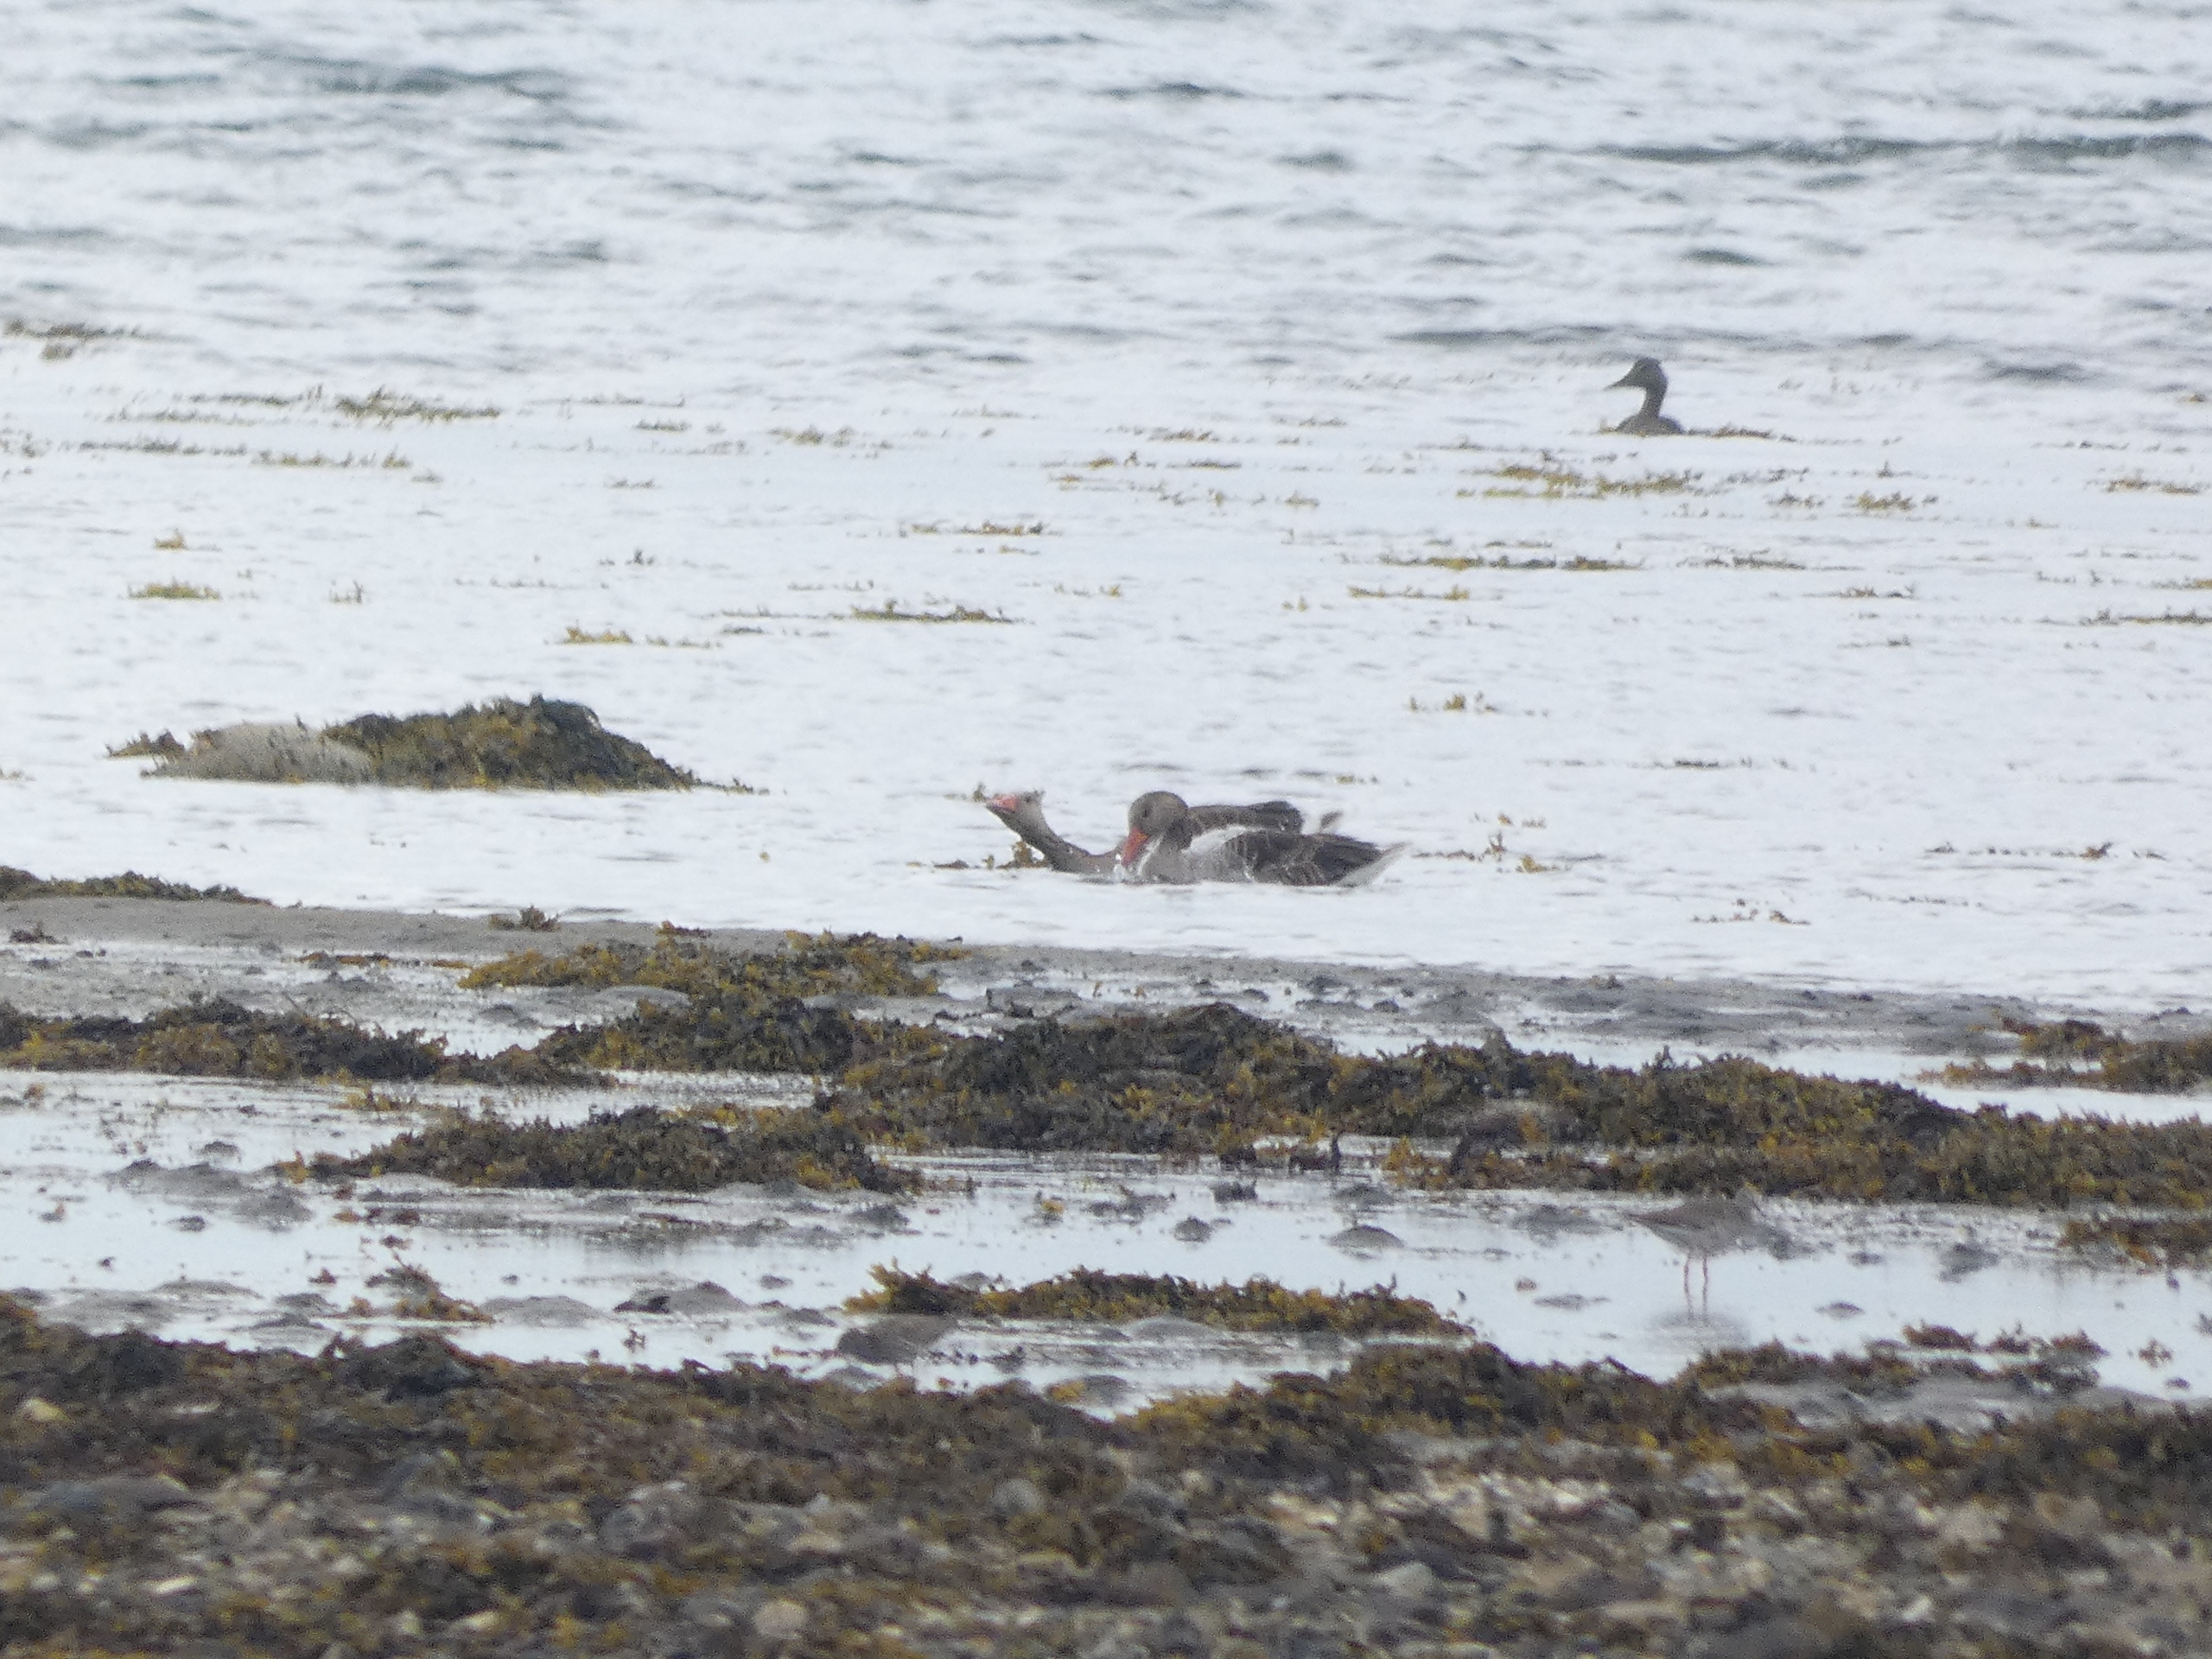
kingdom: Animalia
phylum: Chordata
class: Aves
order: Anseriformes
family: Anatidae
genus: Anser
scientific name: Anser anser
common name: Grågås
